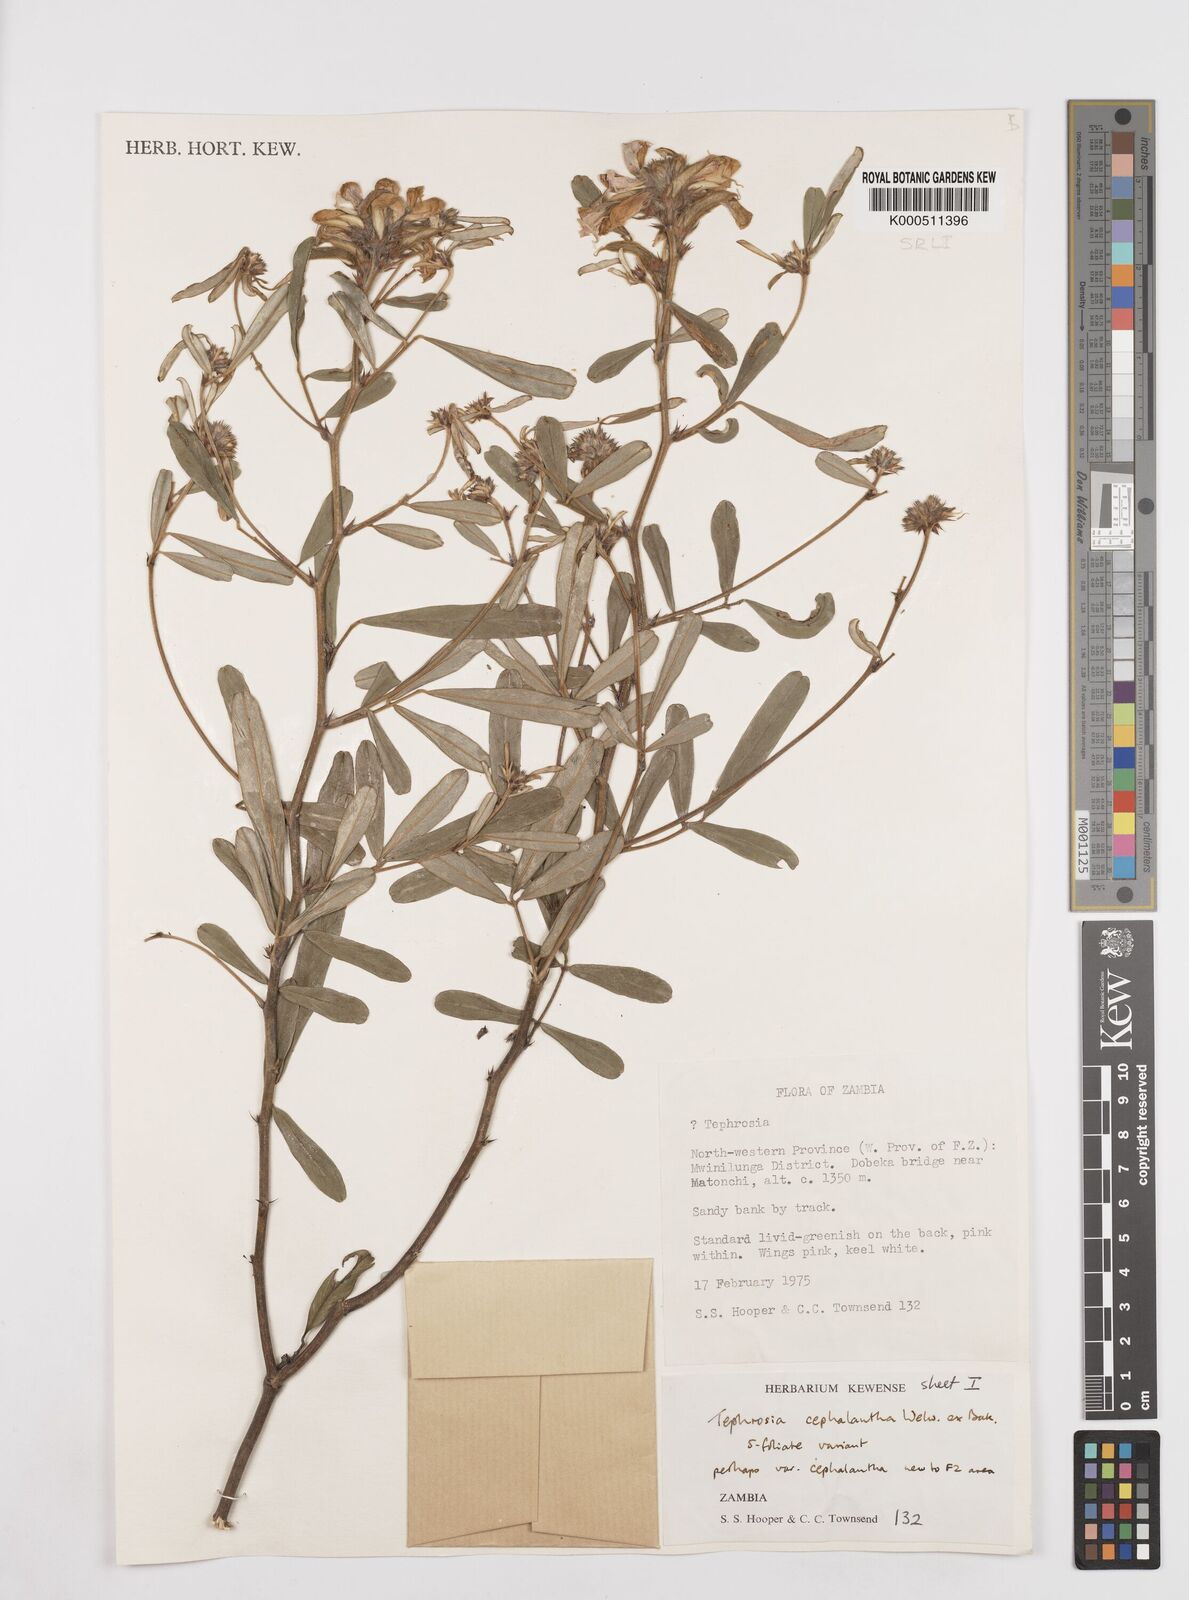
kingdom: Plantae
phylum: Tracheophyta
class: Magnoliopsida
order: Fabales
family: Fabaceae
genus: Tephrosia
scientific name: Tephrosia cephalantha
